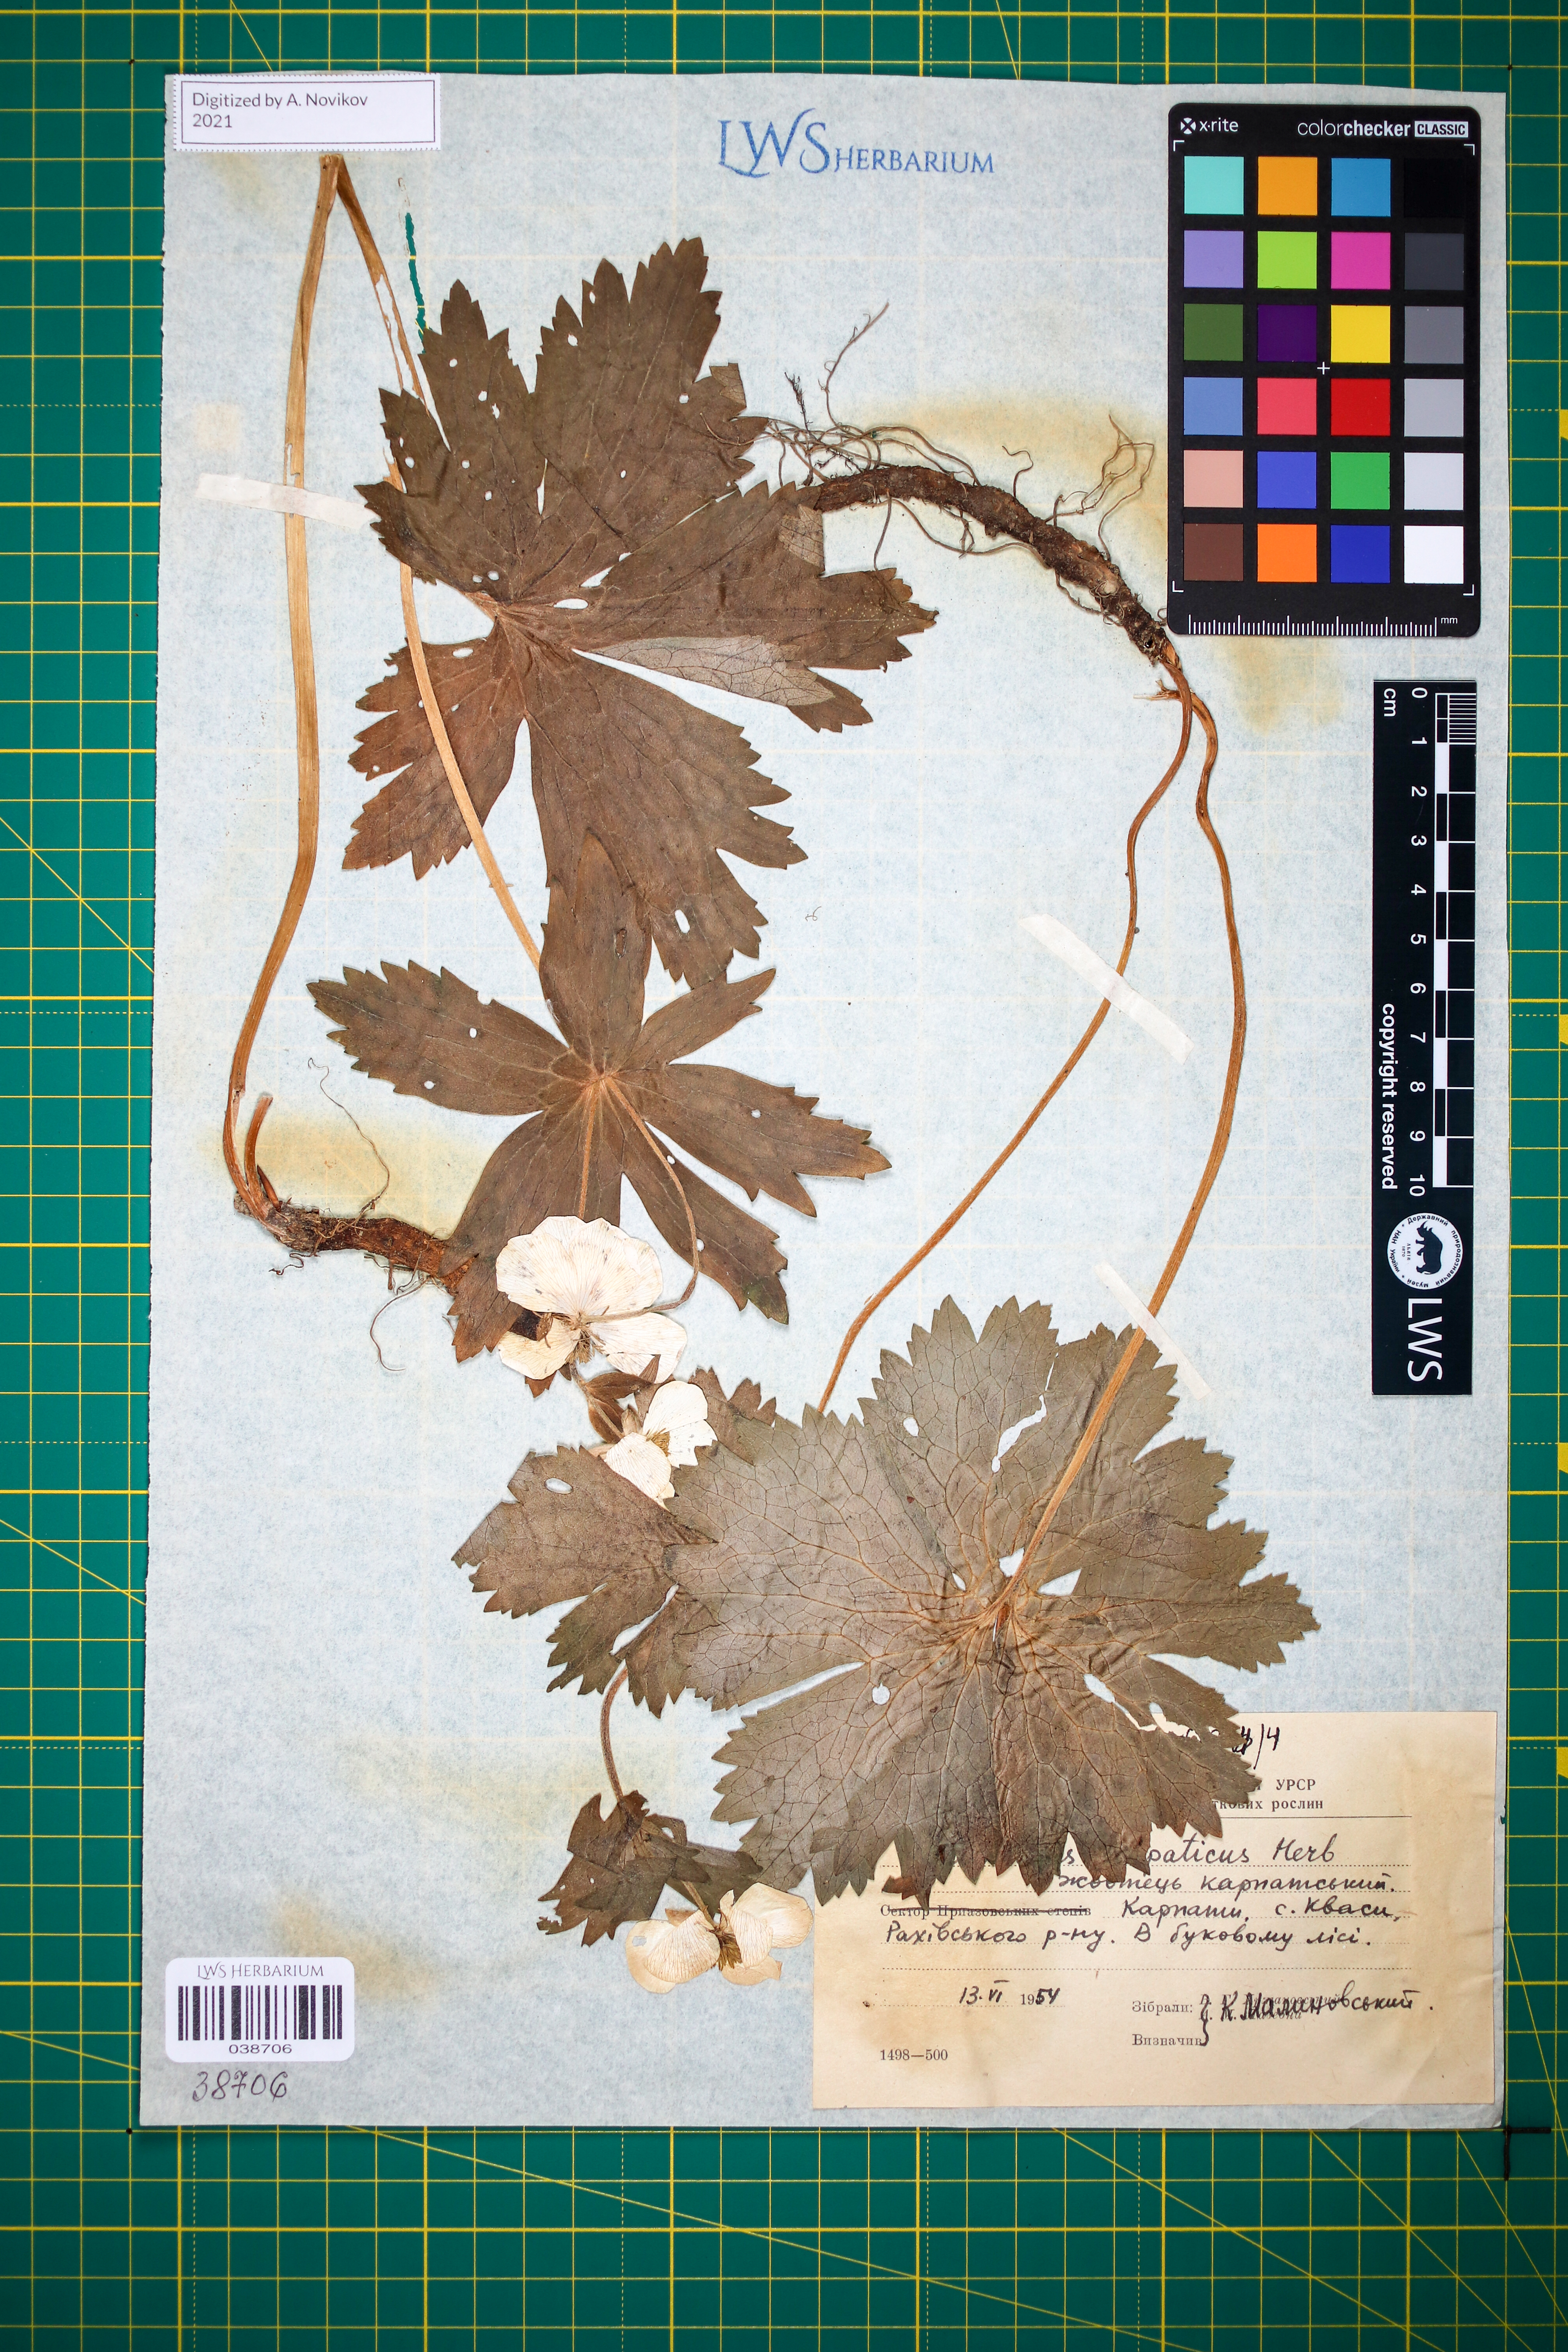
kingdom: Plantae
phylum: Tracheophyta
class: Magnoliopsida
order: Ranunculales
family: Ranunculaceae
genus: Ranunculus
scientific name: Ranunculus carpaticus
